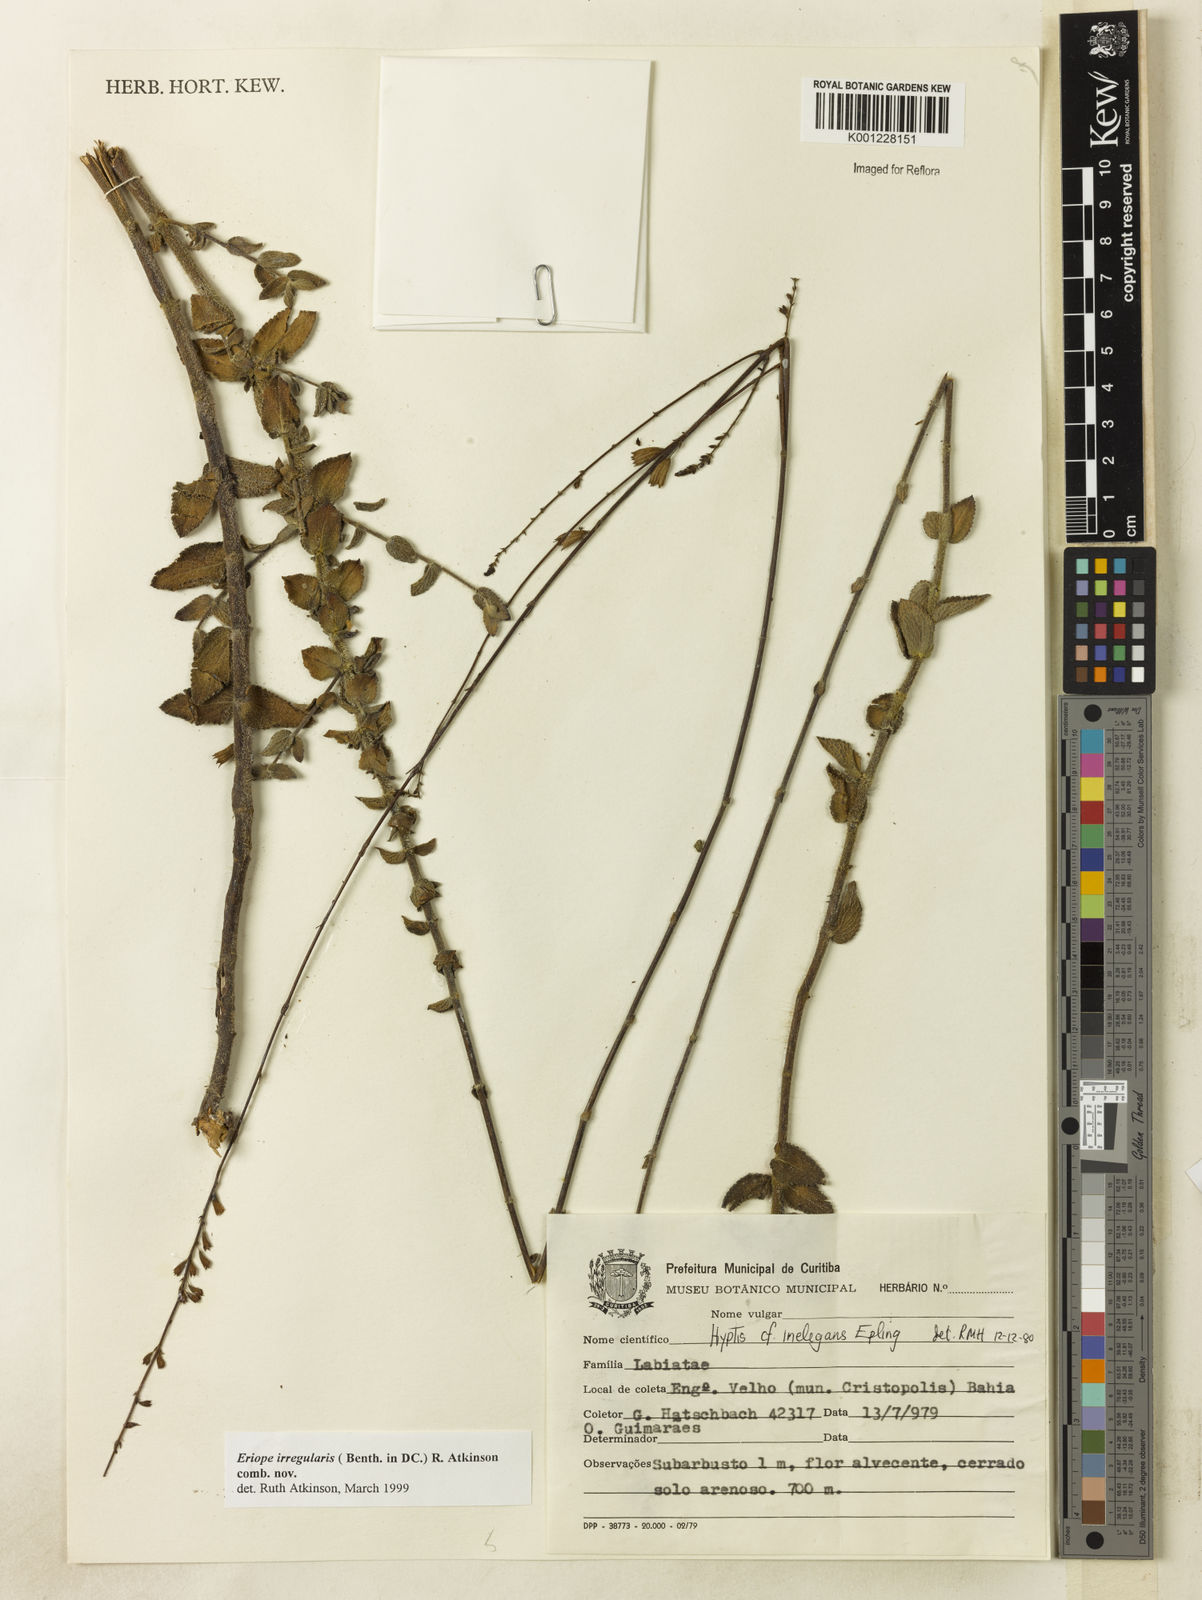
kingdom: Plantae
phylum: Tracheophyta
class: Magnoliopsida
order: Lamiales
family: Lamiaceae
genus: Hypenia
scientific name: Hypenia irregularis
